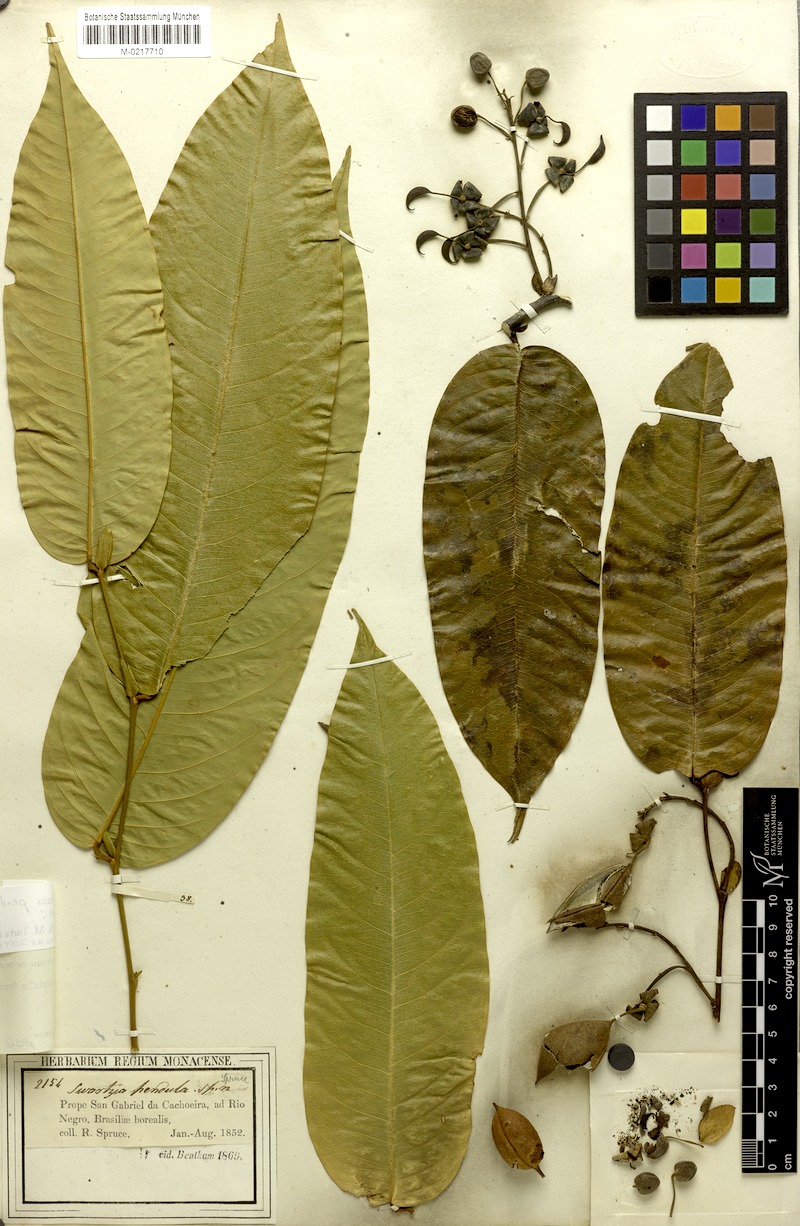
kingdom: Plantae
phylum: Tracheophyta
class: Magnoliopsida
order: Fabales
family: Fabaceae
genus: Swartzia
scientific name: Swartzia pendula
